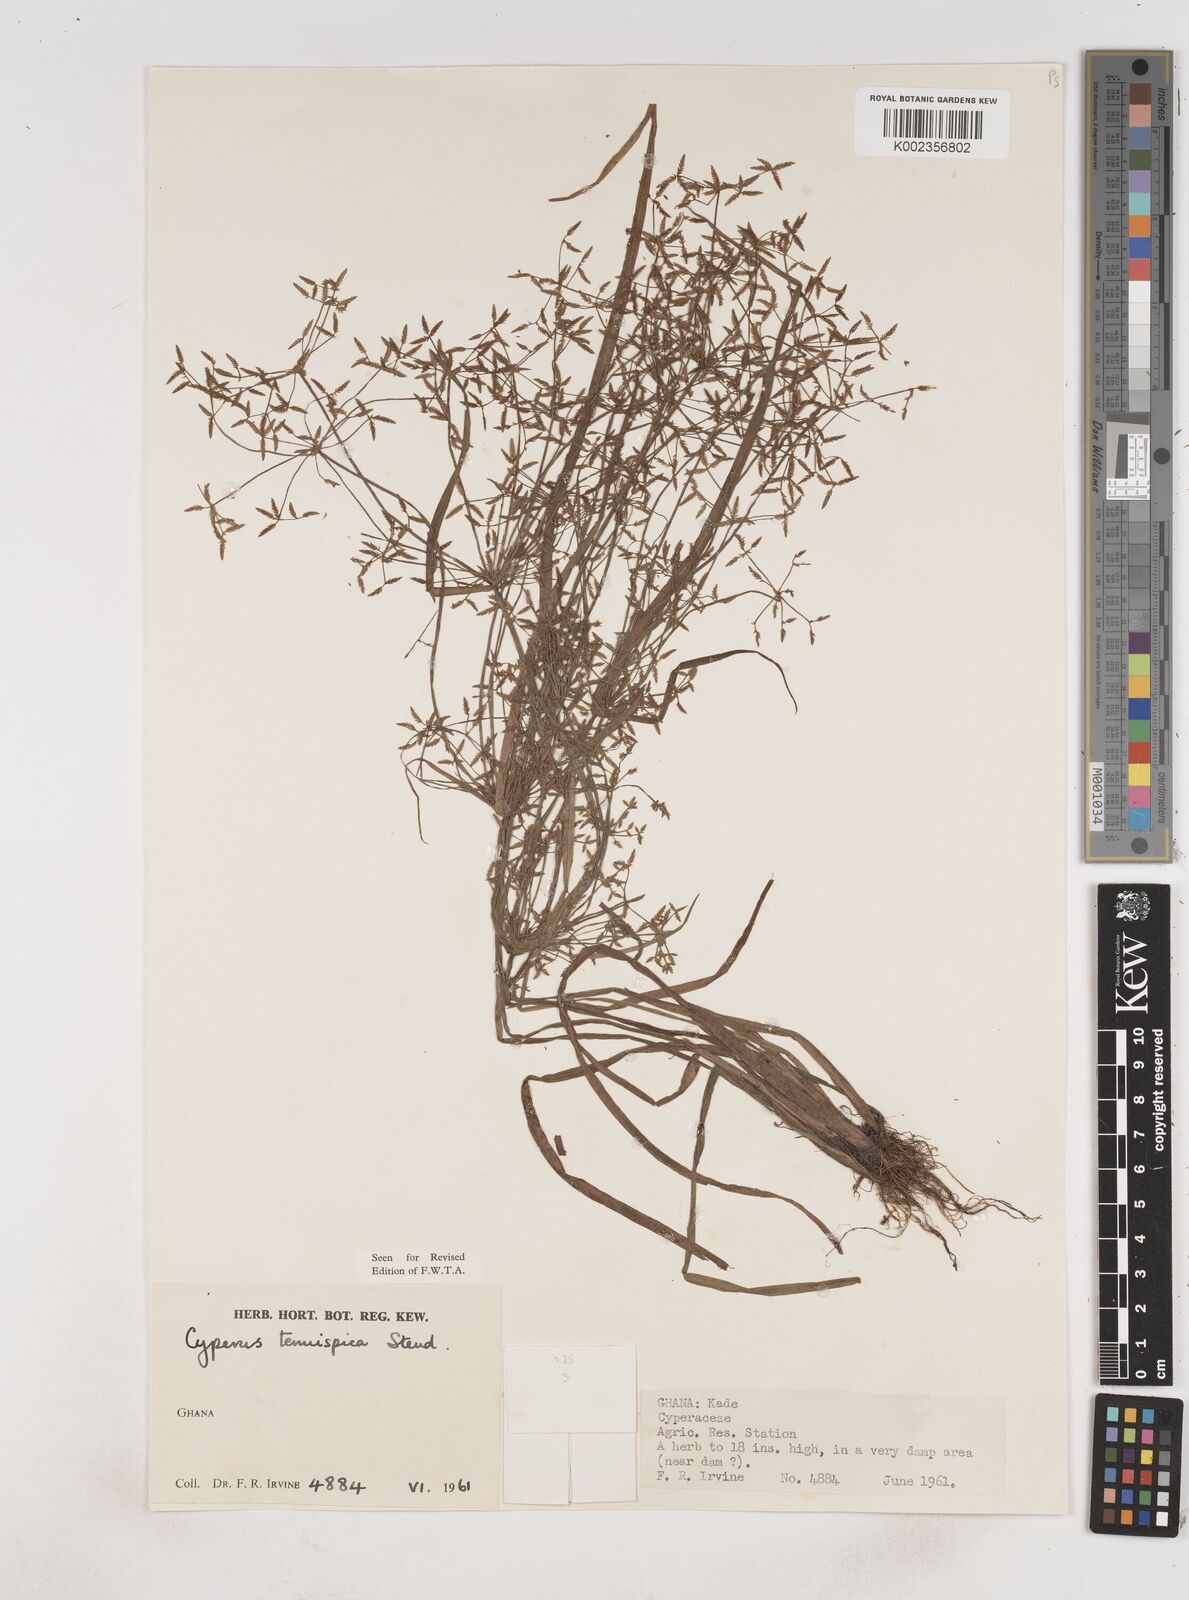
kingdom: Plantae
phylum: Tracheophyta
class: Liliopsida
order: Poales
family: Cyperaceae
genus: Cyperus
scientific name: Cyperus tenuispica
